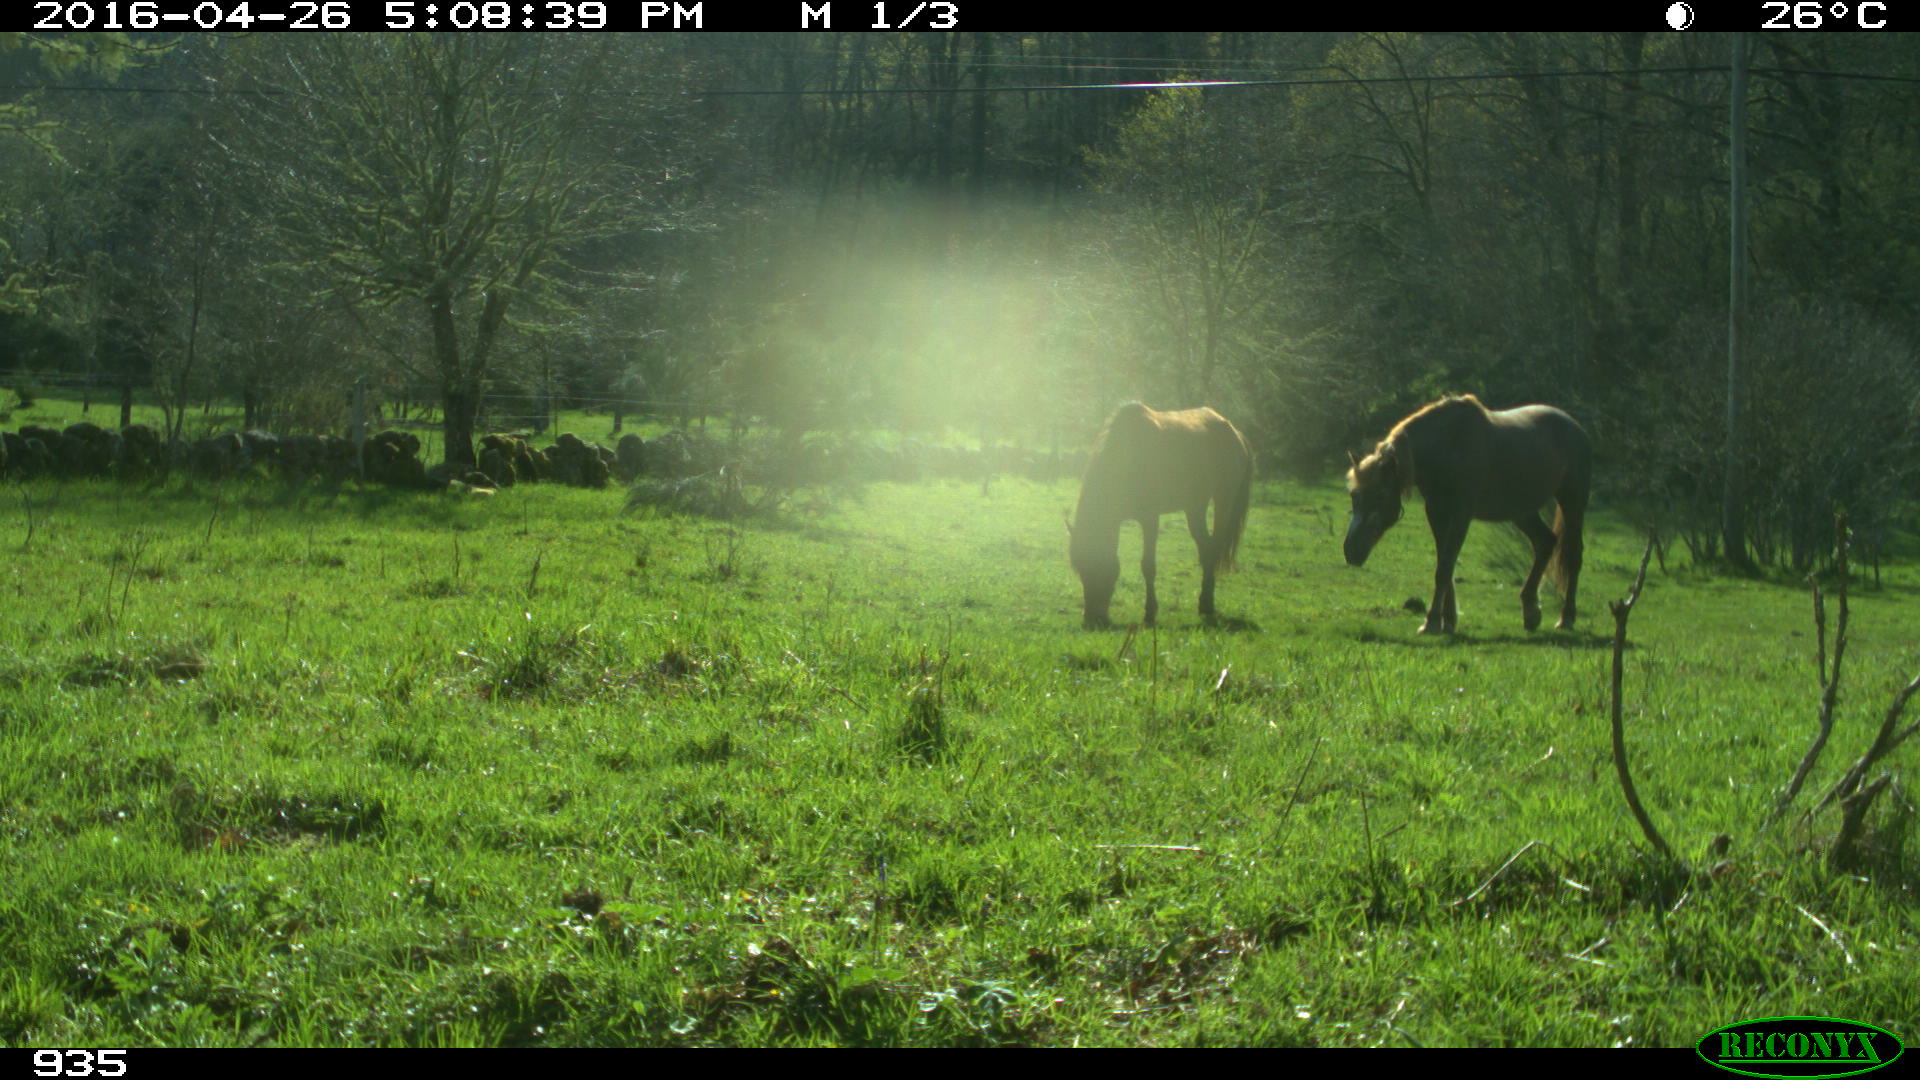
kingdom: Animalia
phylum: Chordata
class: Mammalia
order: Perissodactyla
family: Equidae
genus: Equus
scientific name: Equus caballus
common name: Horse
